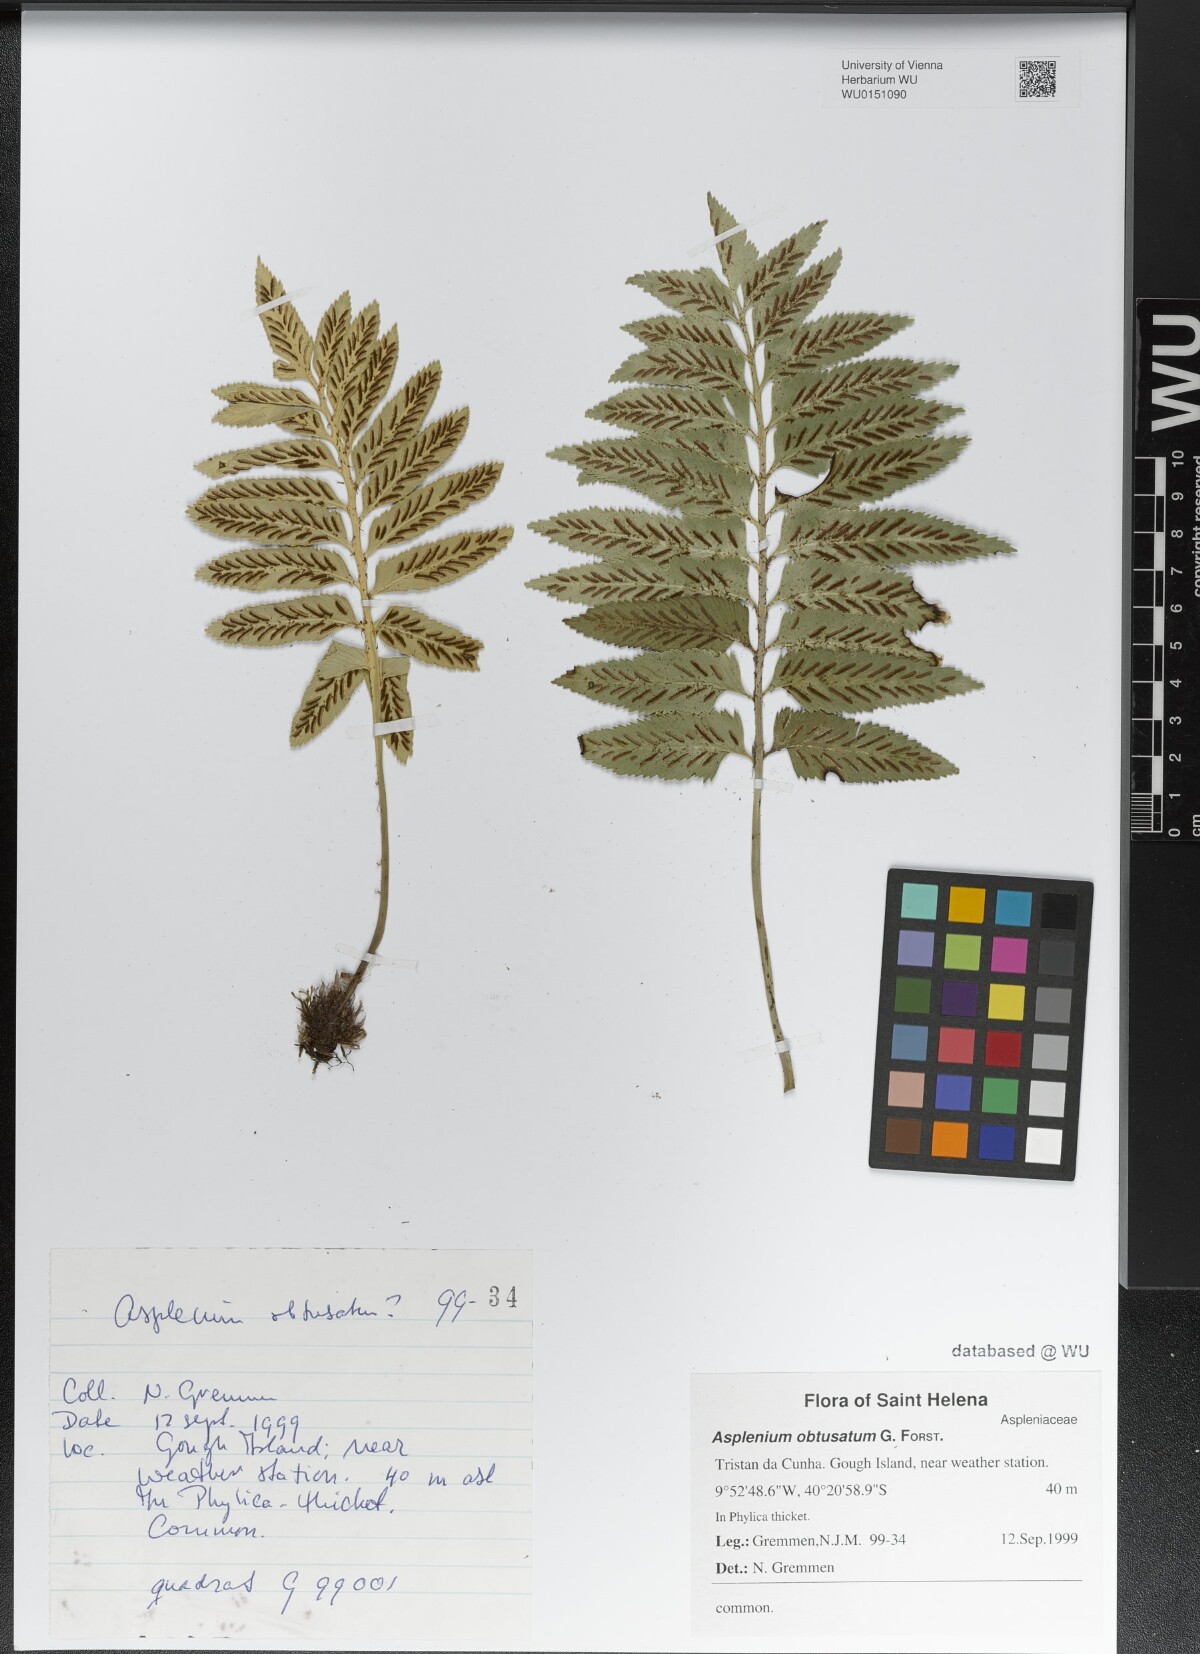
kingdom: Plantae
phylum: Tracheophyta
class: Polypodiopsida
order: Polypodiales
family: Aspleniaceae
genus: Asplenium
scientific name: Asplenium obtusatum
